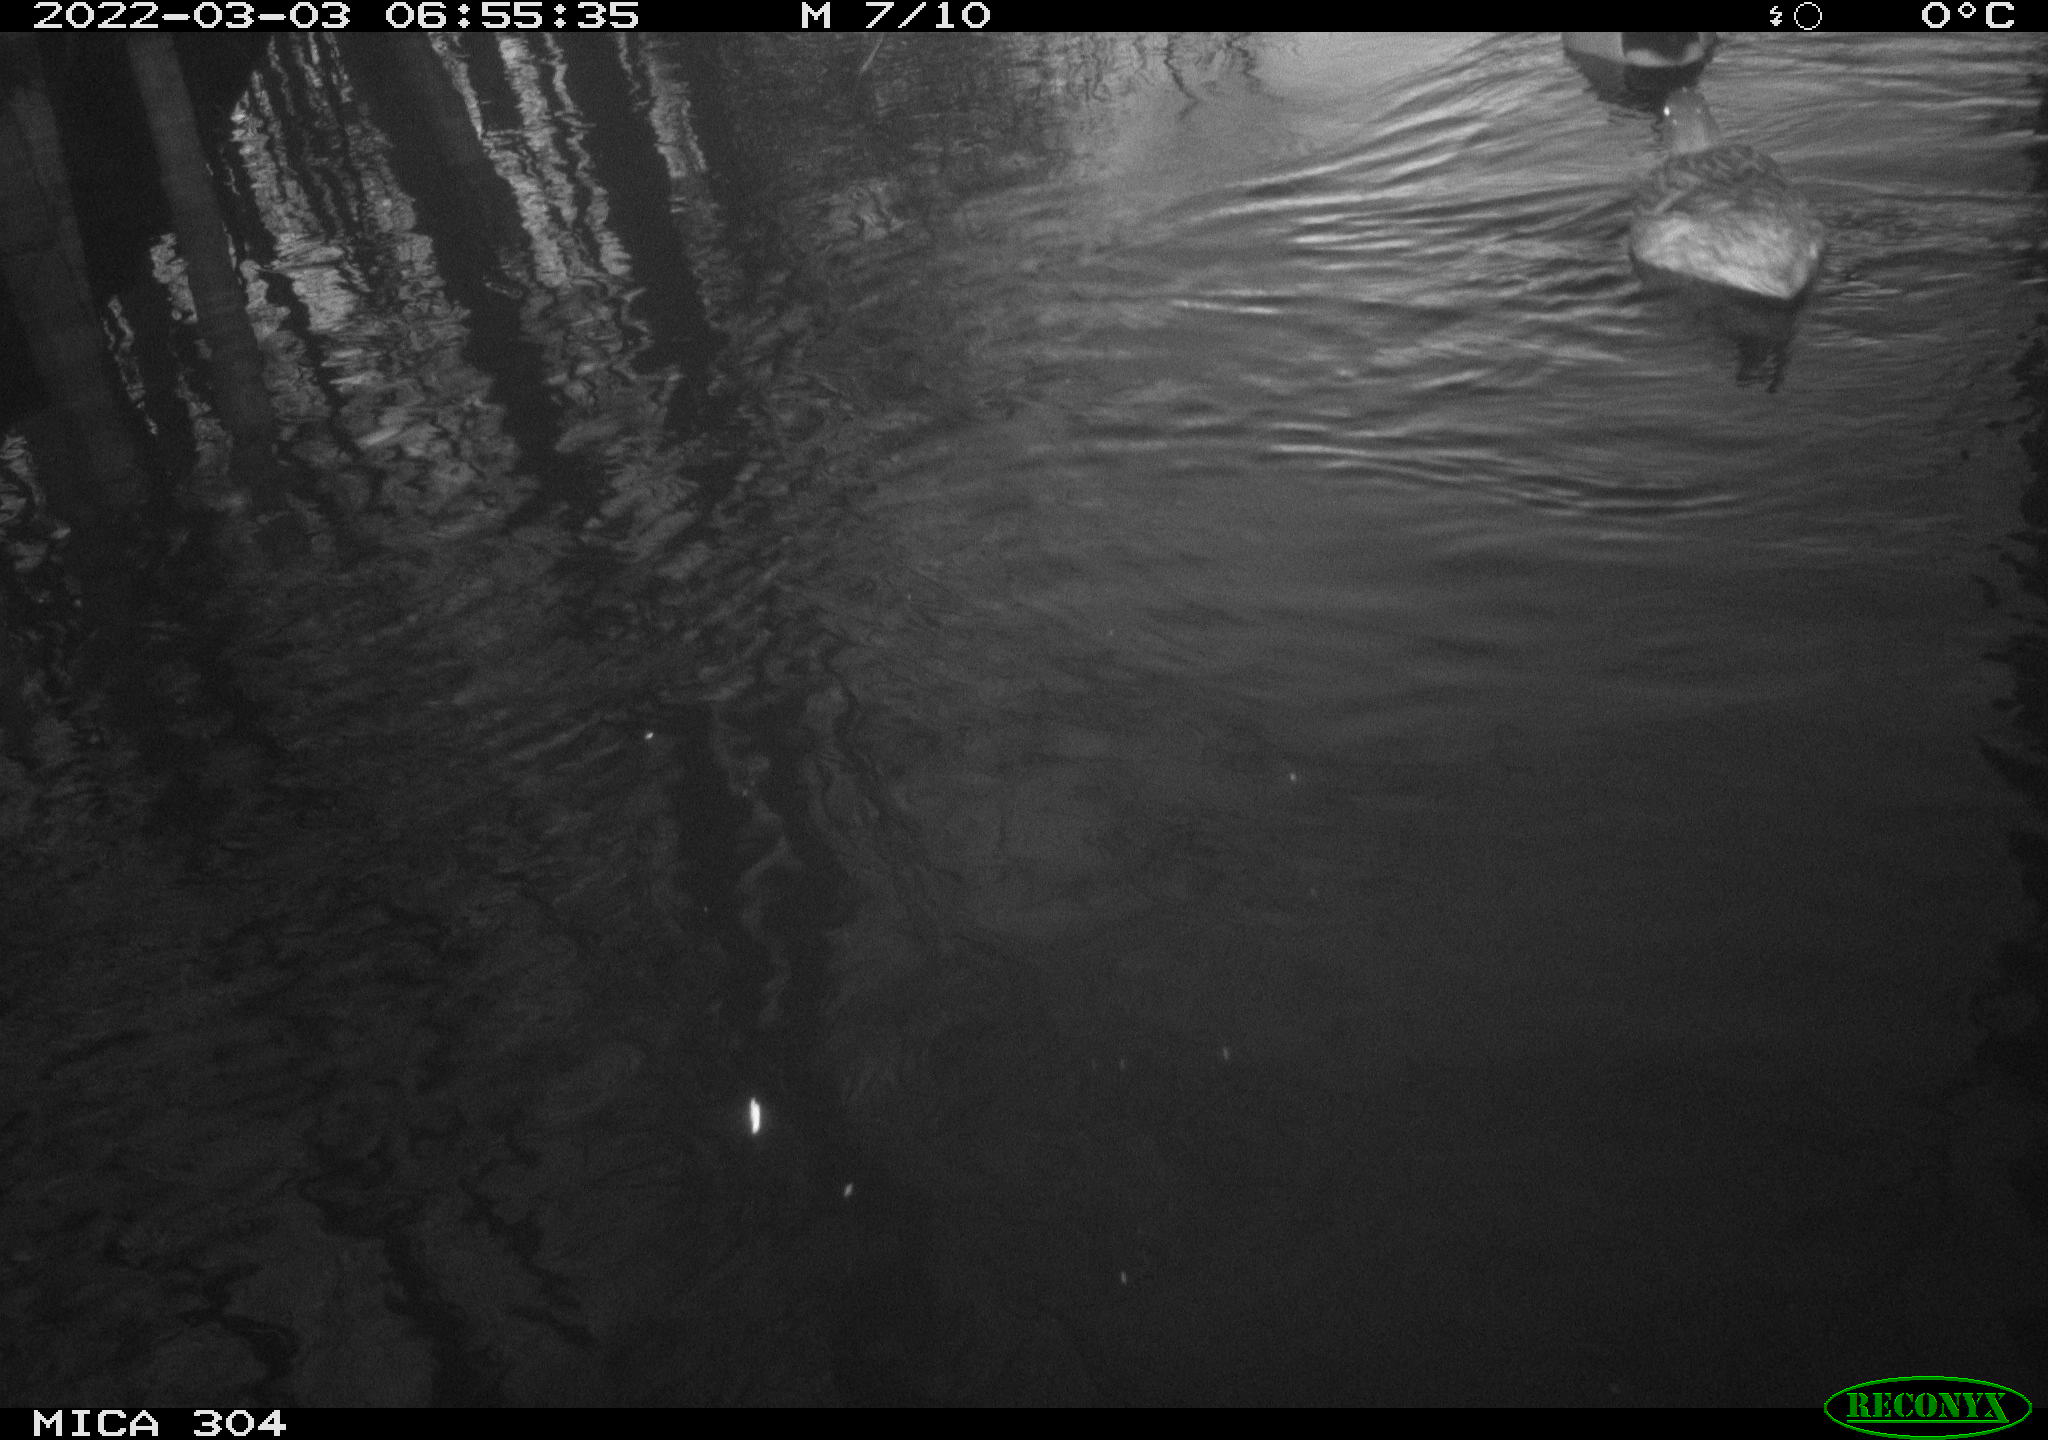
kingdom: Animalia
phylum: Chordata
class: Aves
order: Anseriformes
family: Anatidae
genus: Anas
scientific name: Anas platyrhynchos
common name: Mallard
